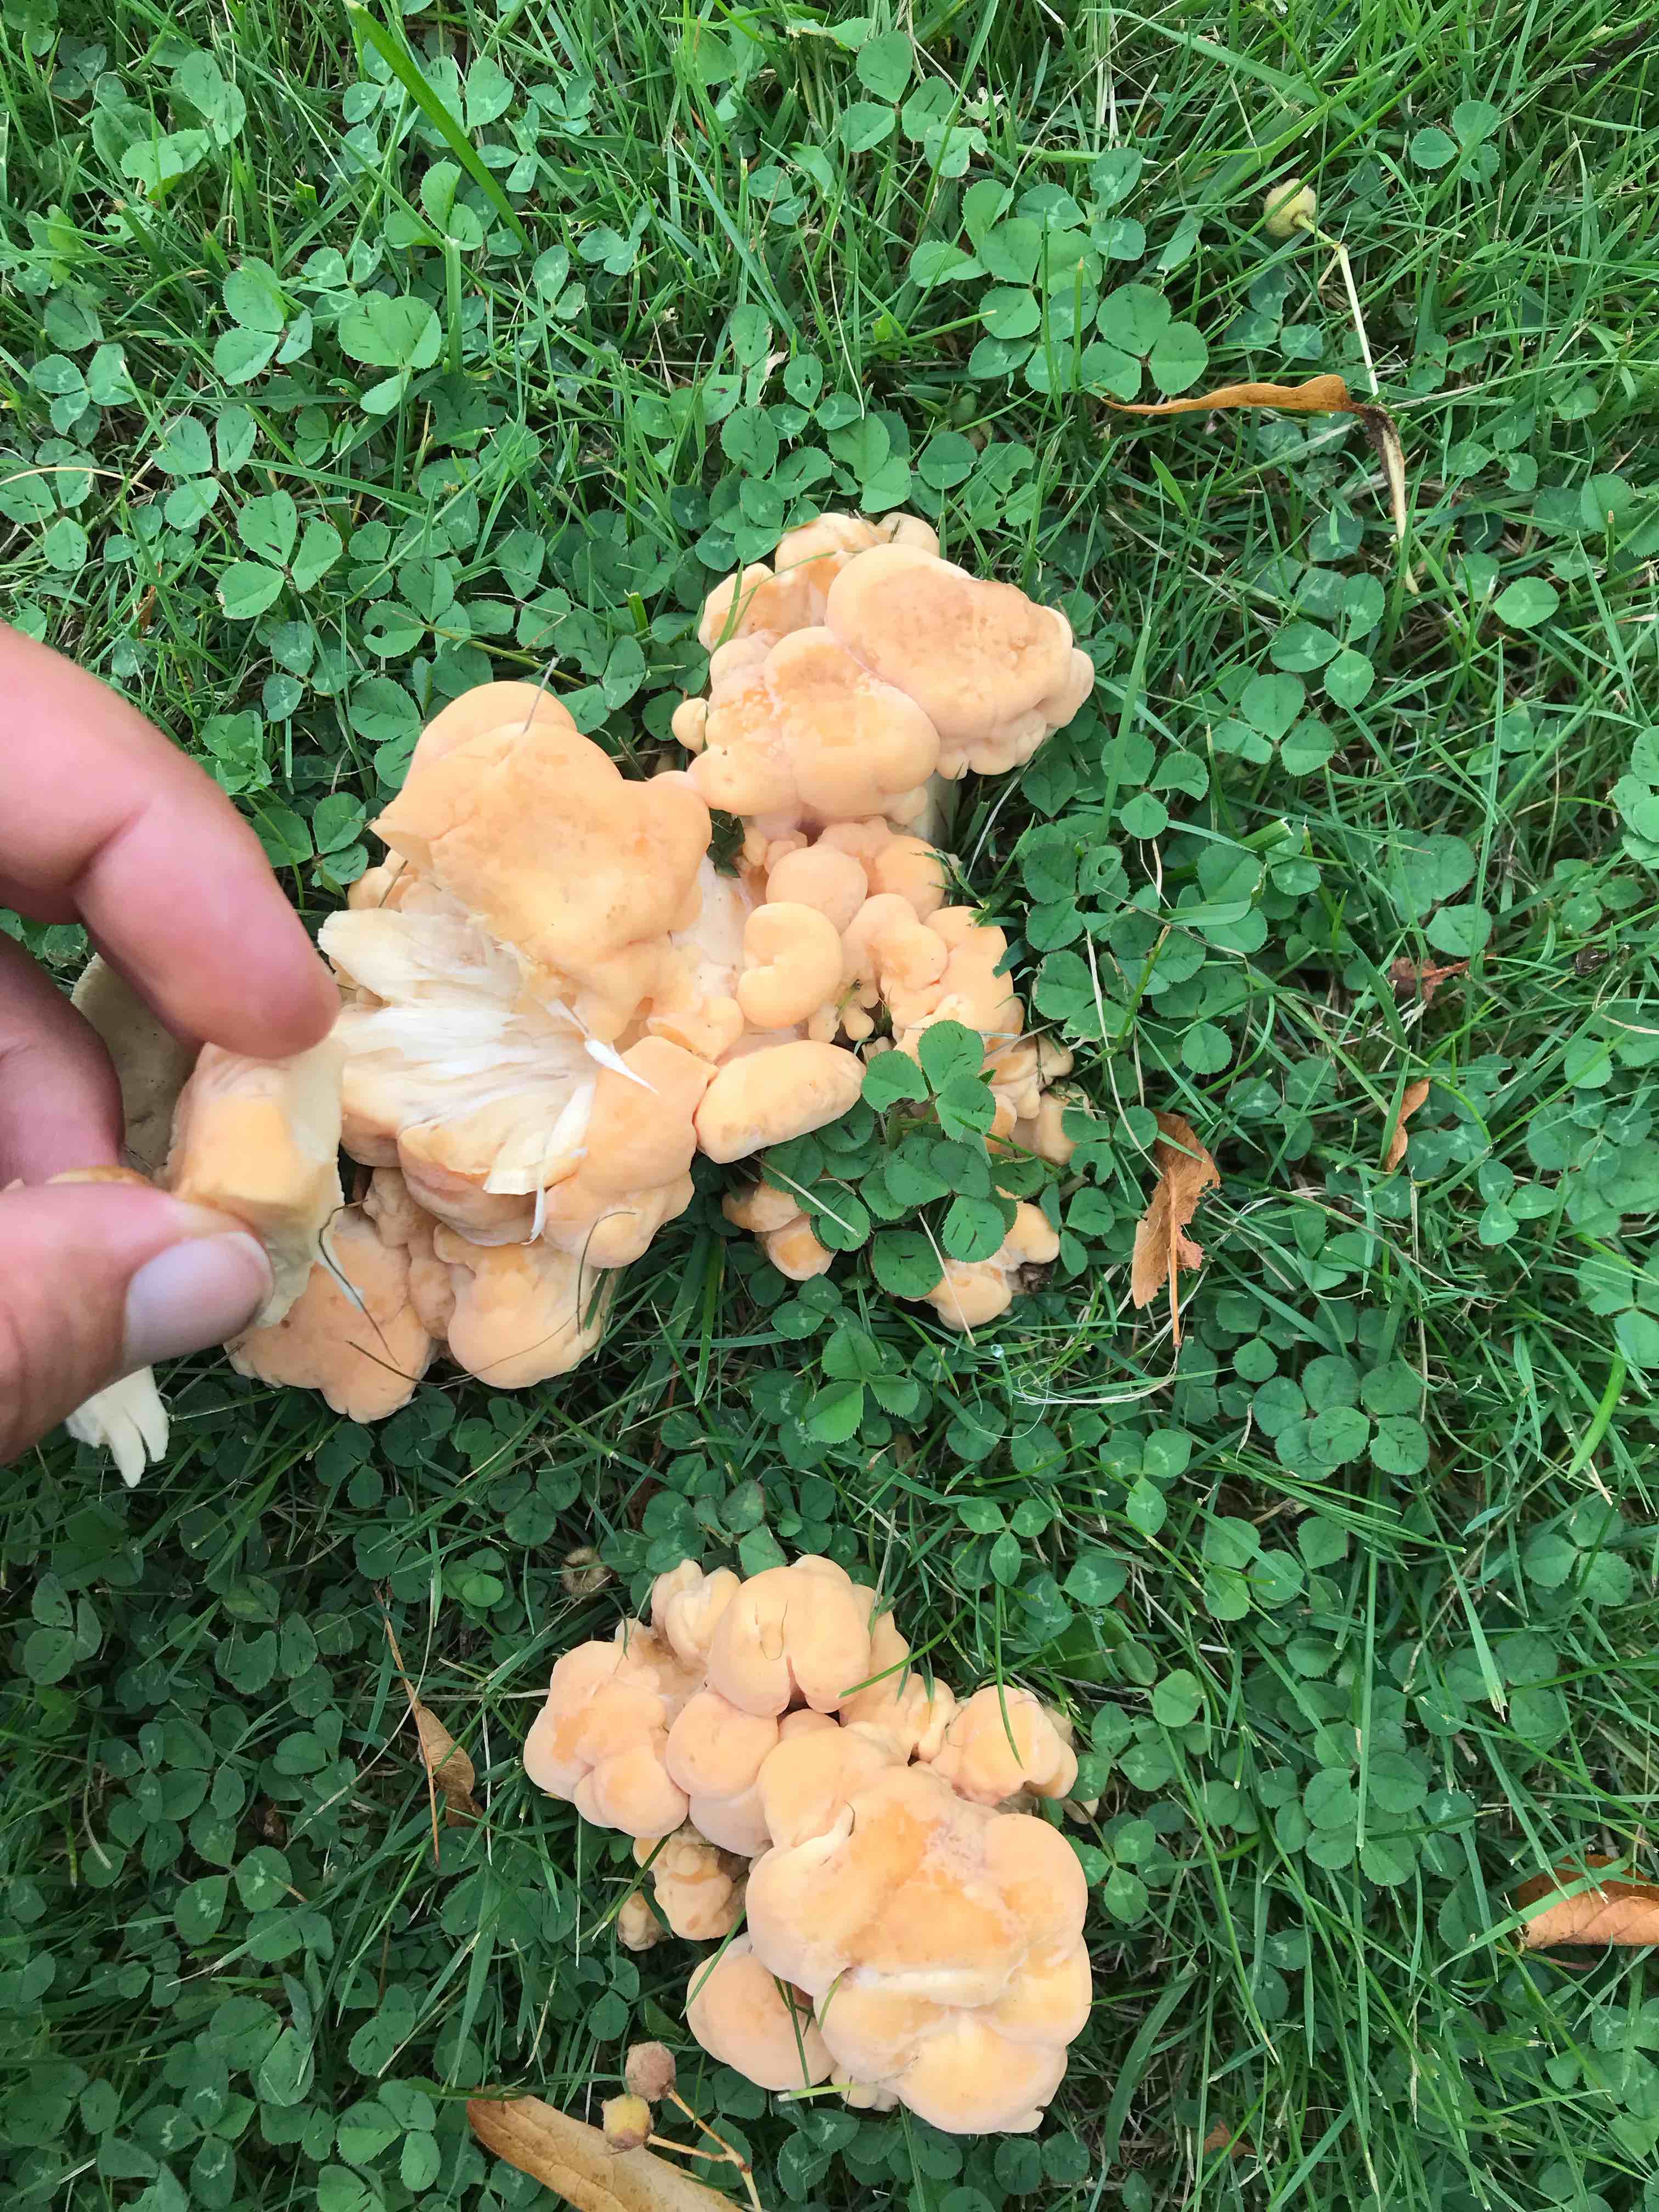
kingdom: Fungi
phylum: Basidiomycota
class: Agaricomycetes
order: Polyporales
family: Laetiporaceae
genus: Laetiporus
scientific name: Laetiporus sulphureus
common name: svovlporesvamp
